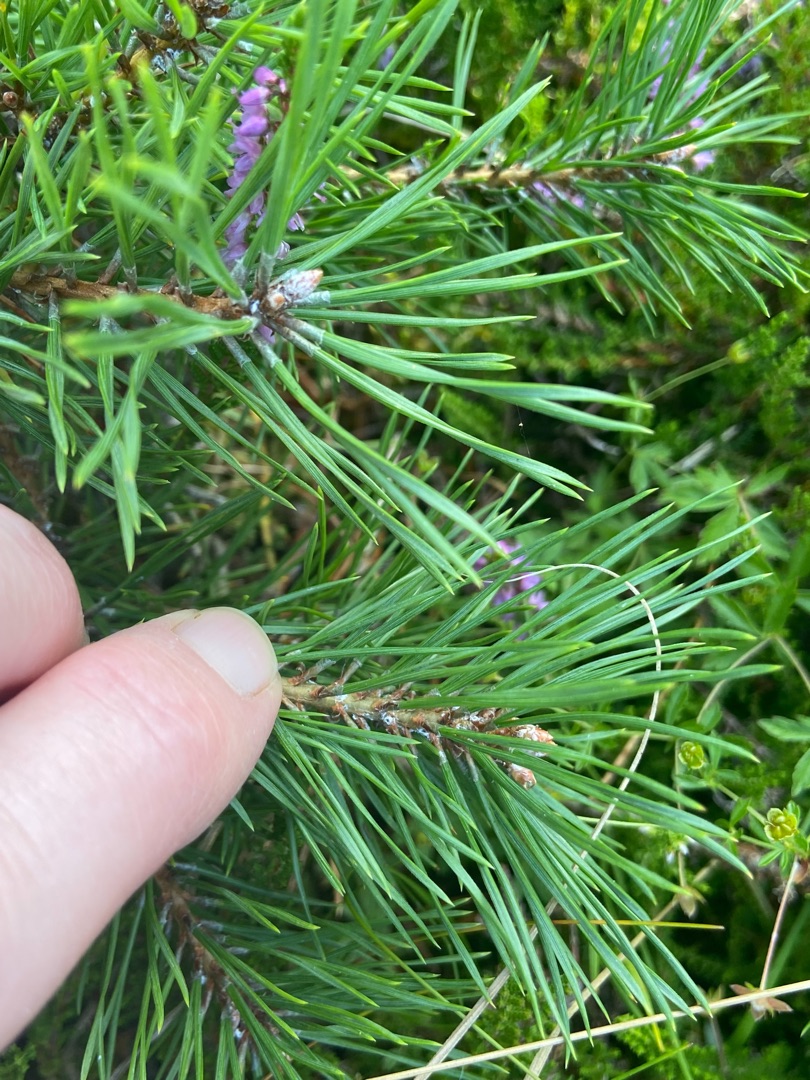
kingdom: Plantae
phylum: Tracheophyta
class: Pinopsida
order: Pinales
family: Pinaceae
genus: Pinus
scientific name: Pinus
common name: Fyrreslægten
